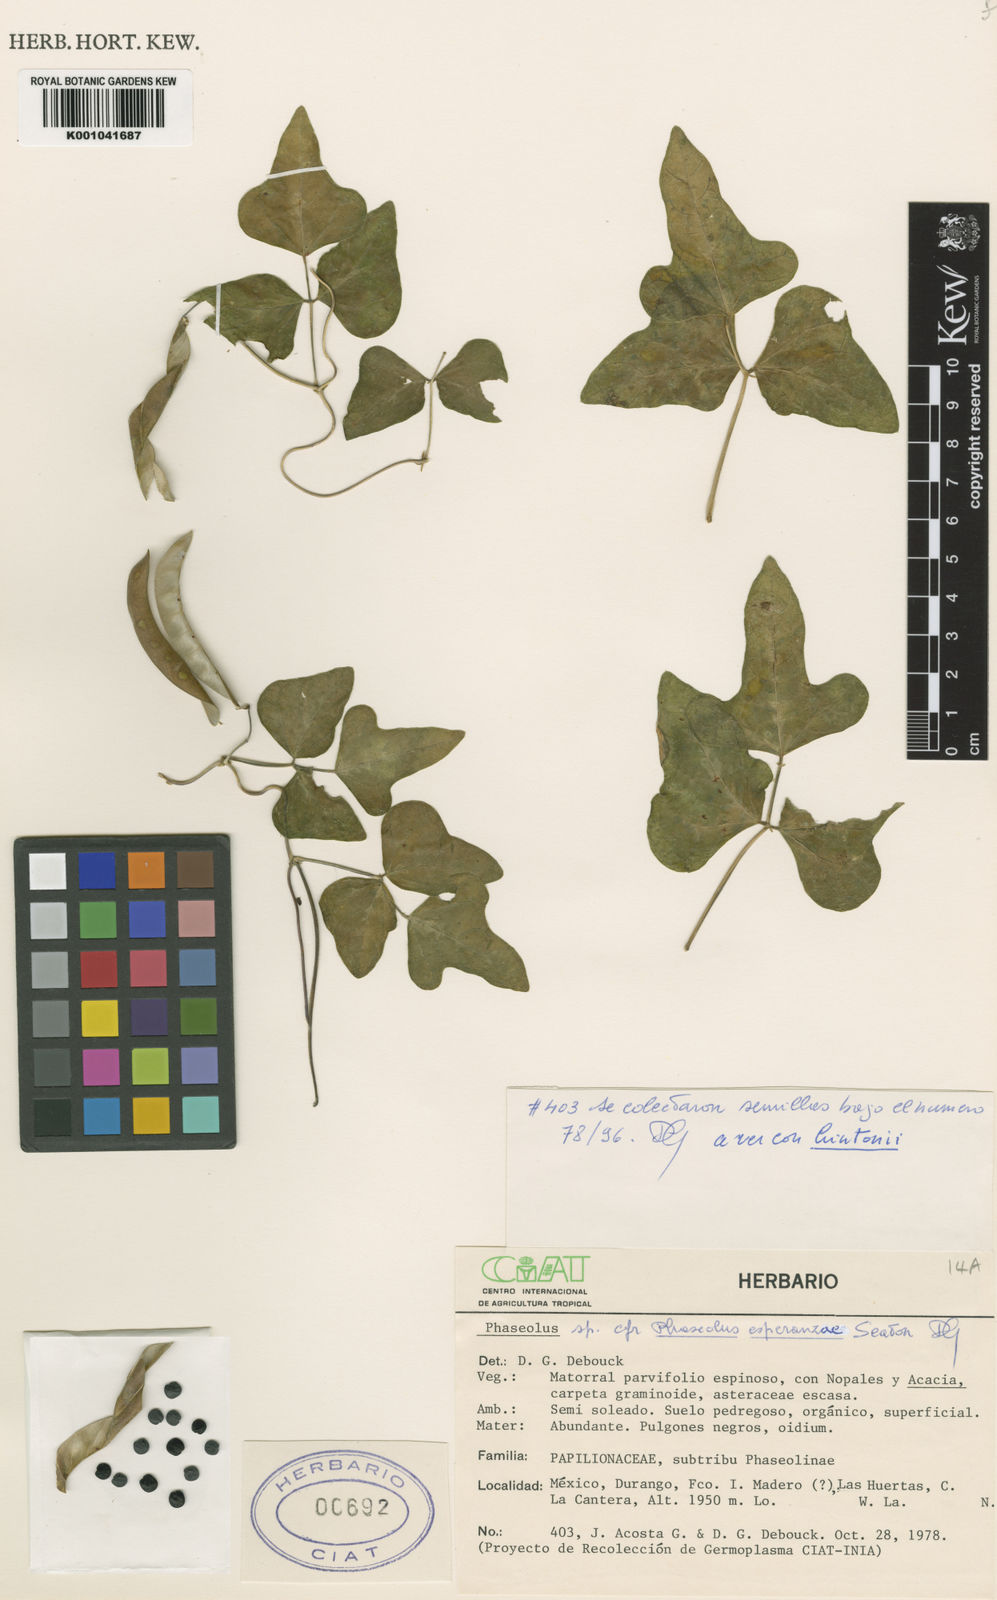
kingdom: Plantae
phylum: Tracheophyta
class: Magnoliopsida
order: Fabales
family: Fabaceae
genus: Phaseolus
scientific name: Phaseolus magnilobatus
